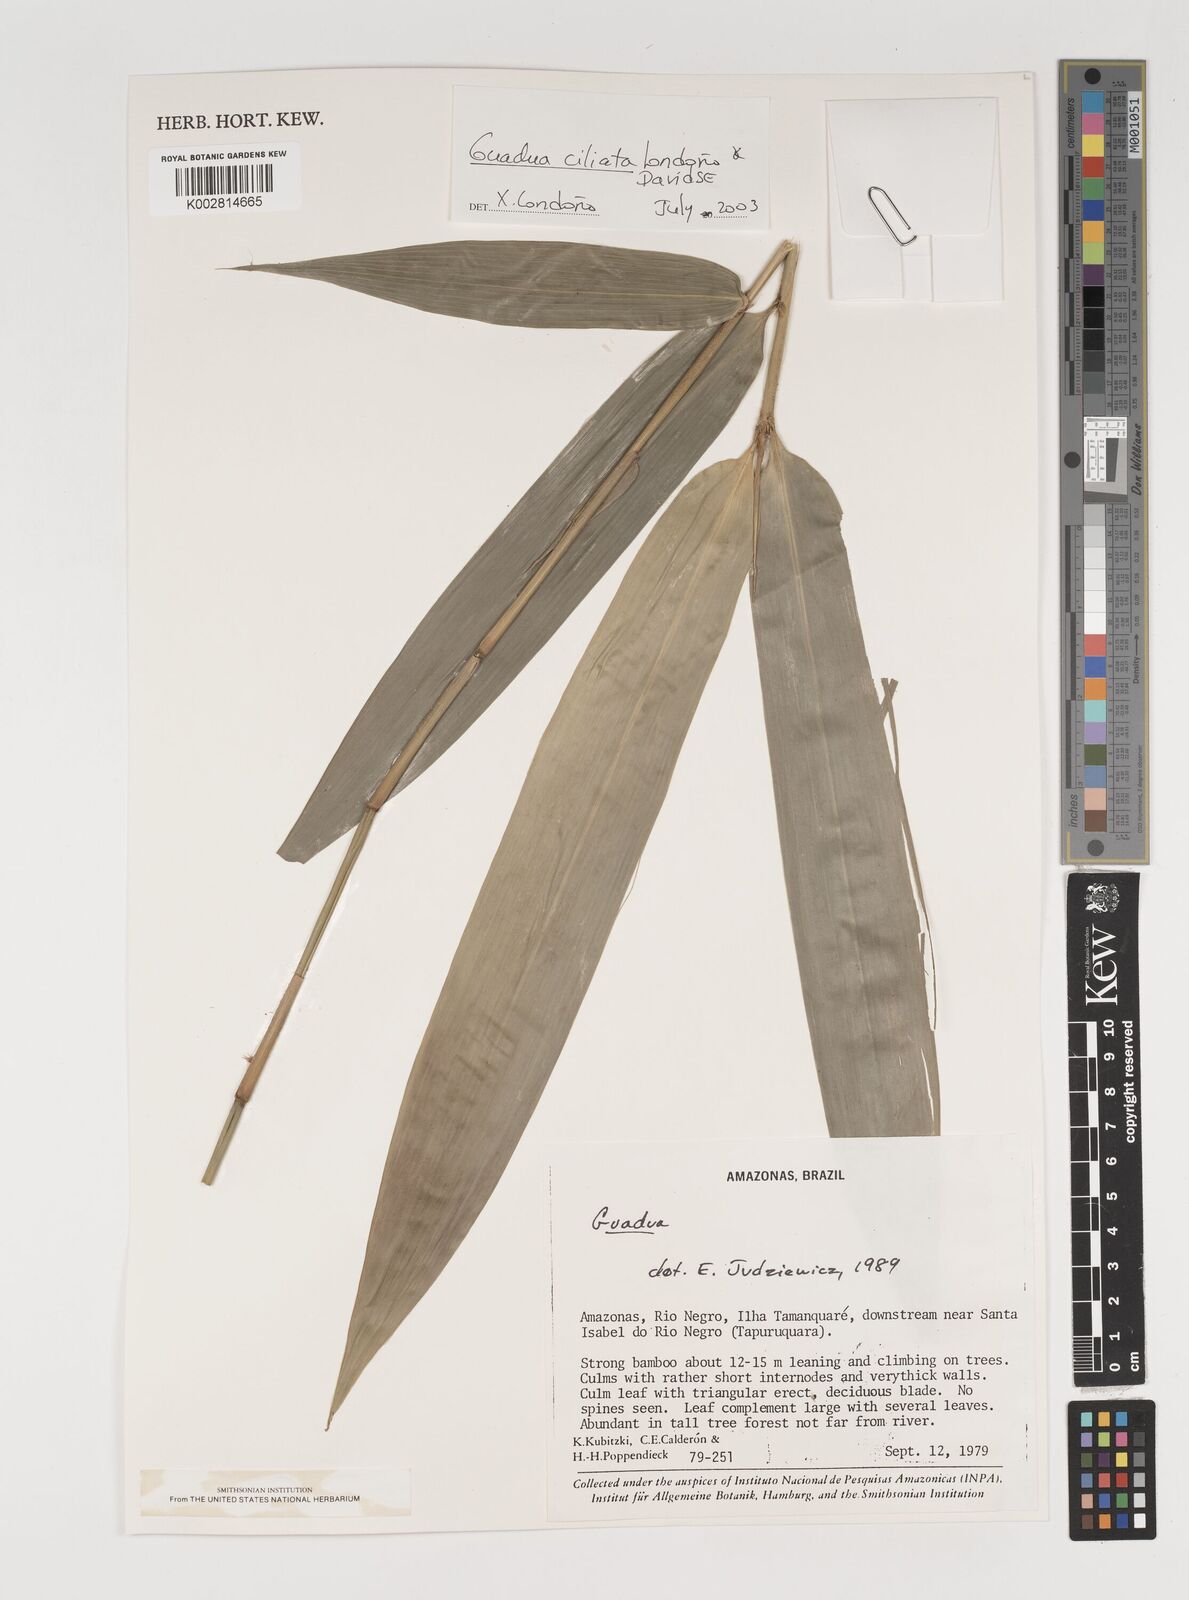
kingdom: Plantae
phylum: Tracheophyta
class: Liliopsida
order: Poales
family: Poaceae
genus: Guadua
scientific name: Guadua ciliata
